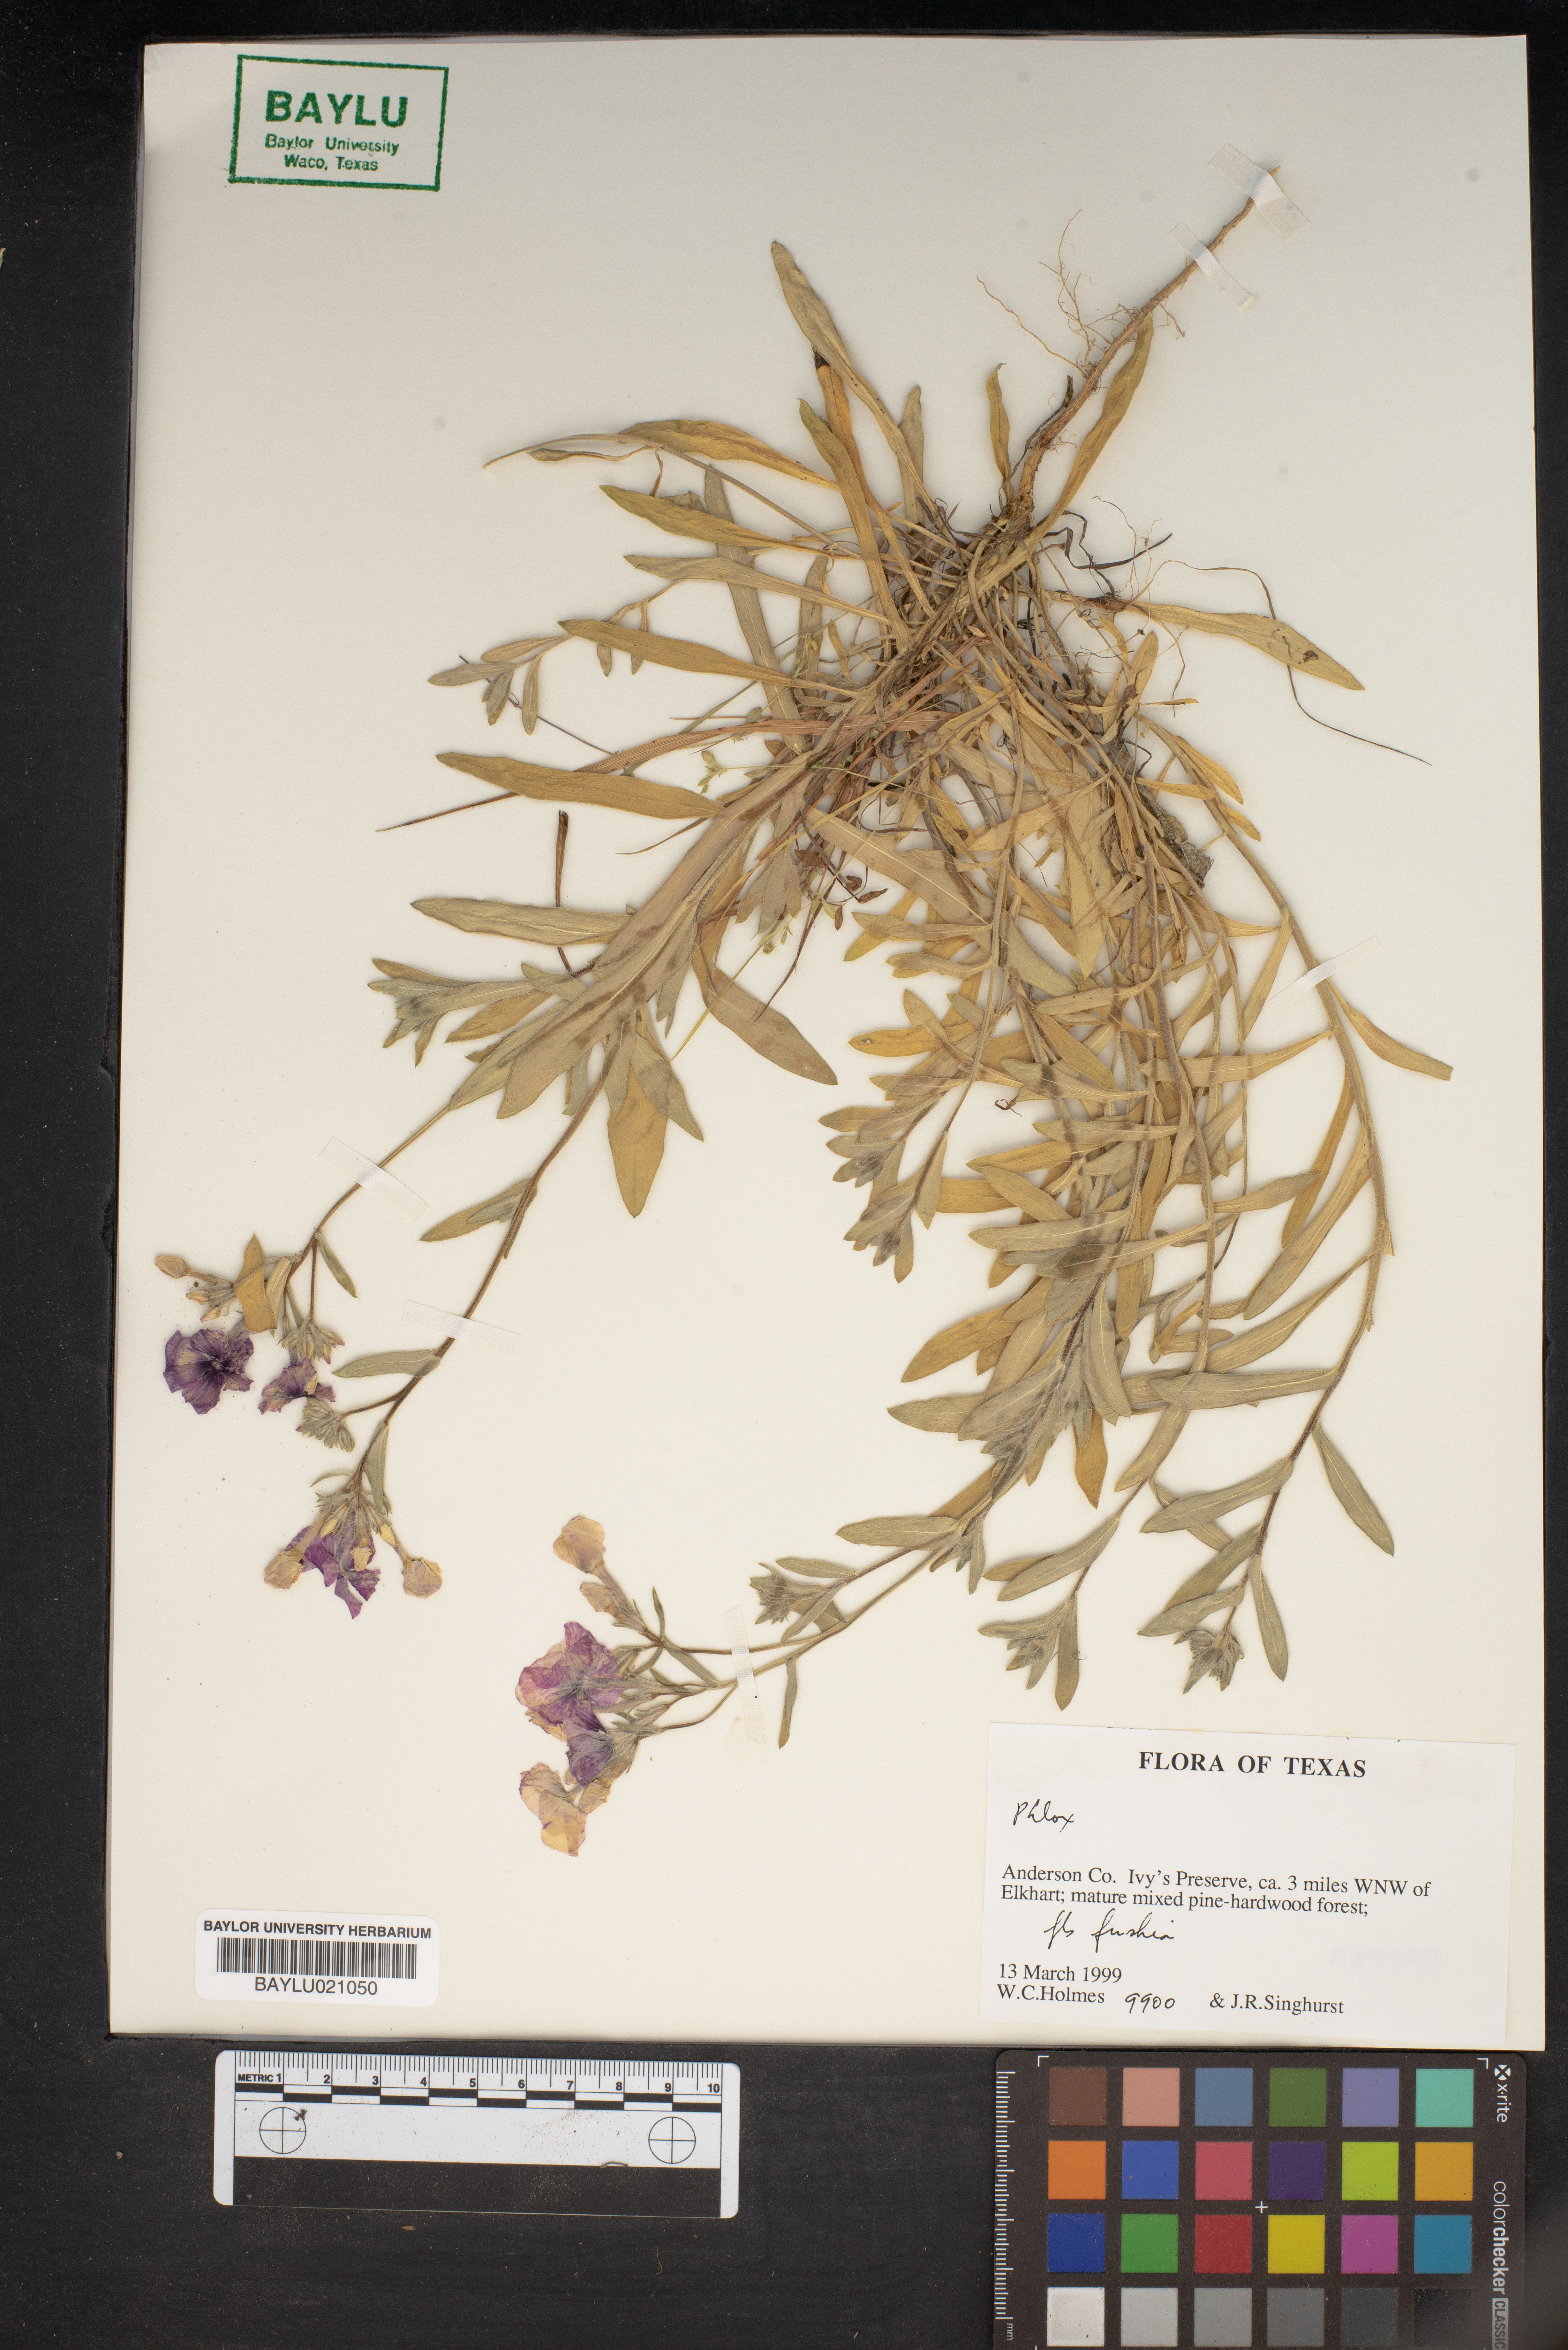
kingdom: Plantae
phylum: Tracheophyta
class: Magnoliopsida
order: Ericales
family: Polemoniaceae
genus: Phlox
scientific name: Phlox
